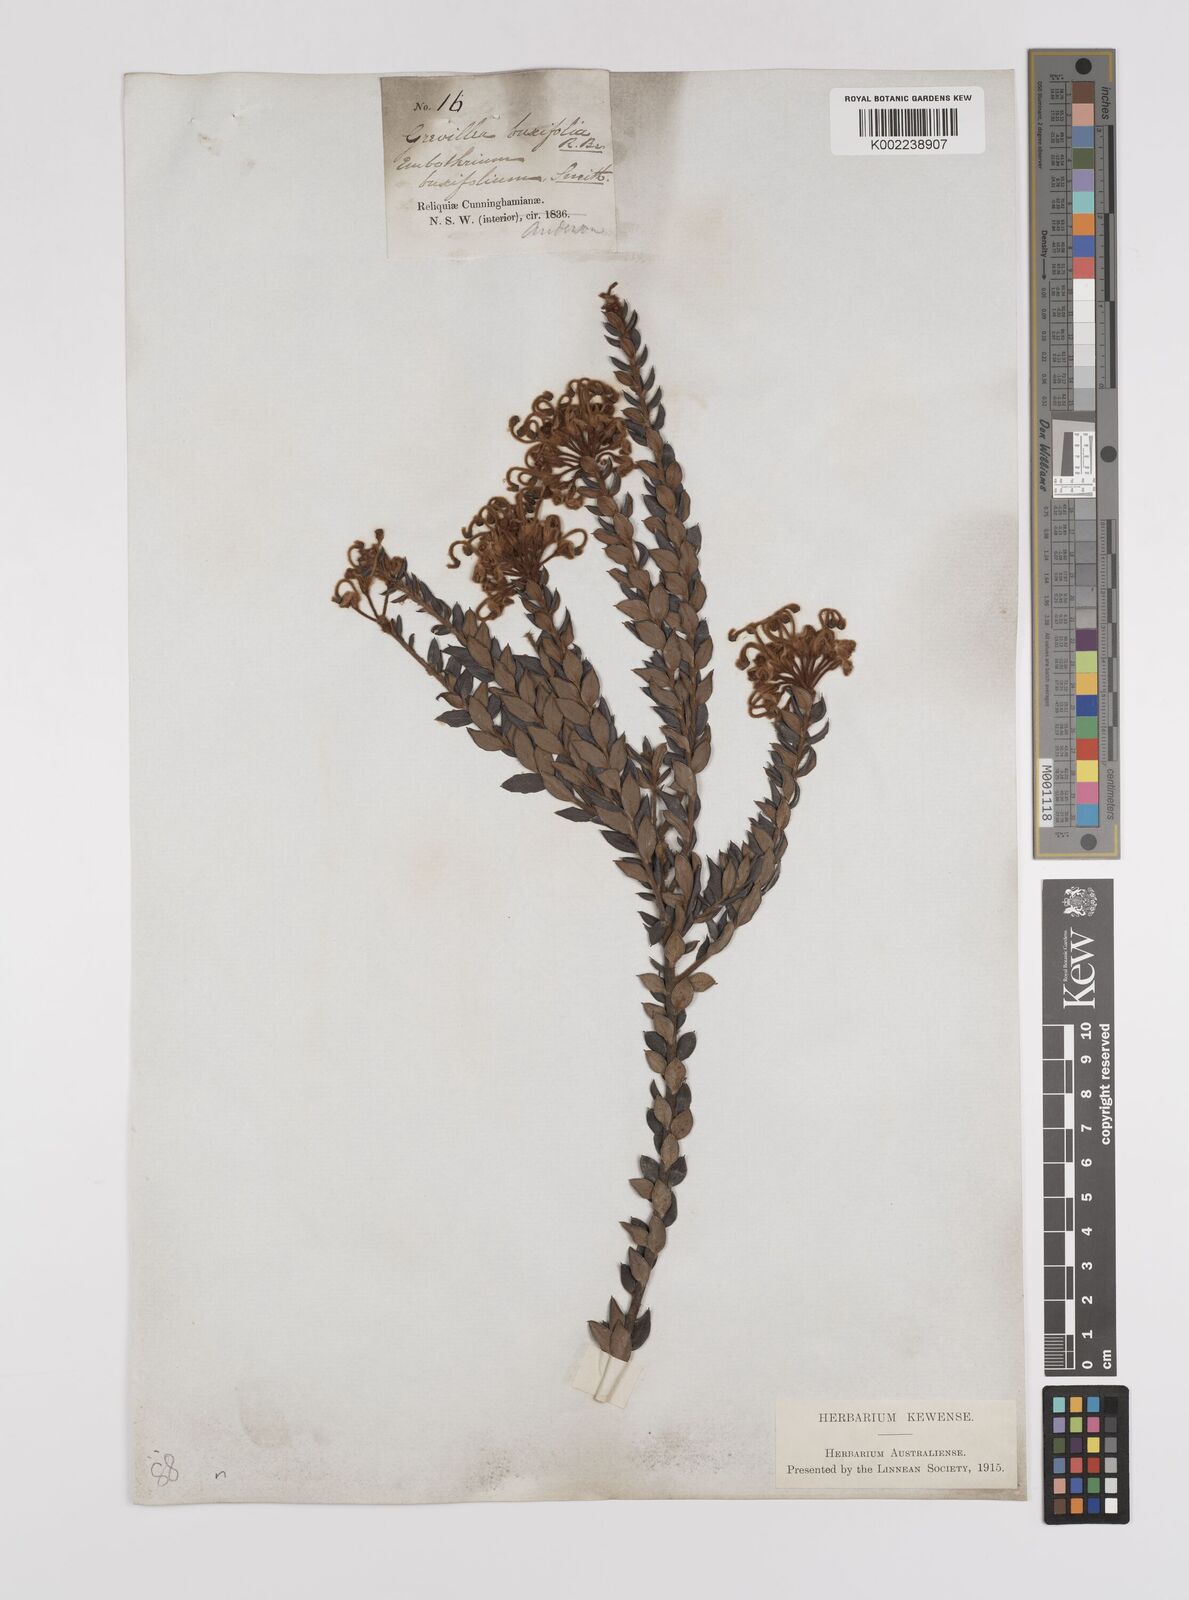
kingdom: Plantae
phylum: Tracheophyta
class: Magnoliopsida
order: Proteales
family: Proteaceae
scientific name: Proteaceae
